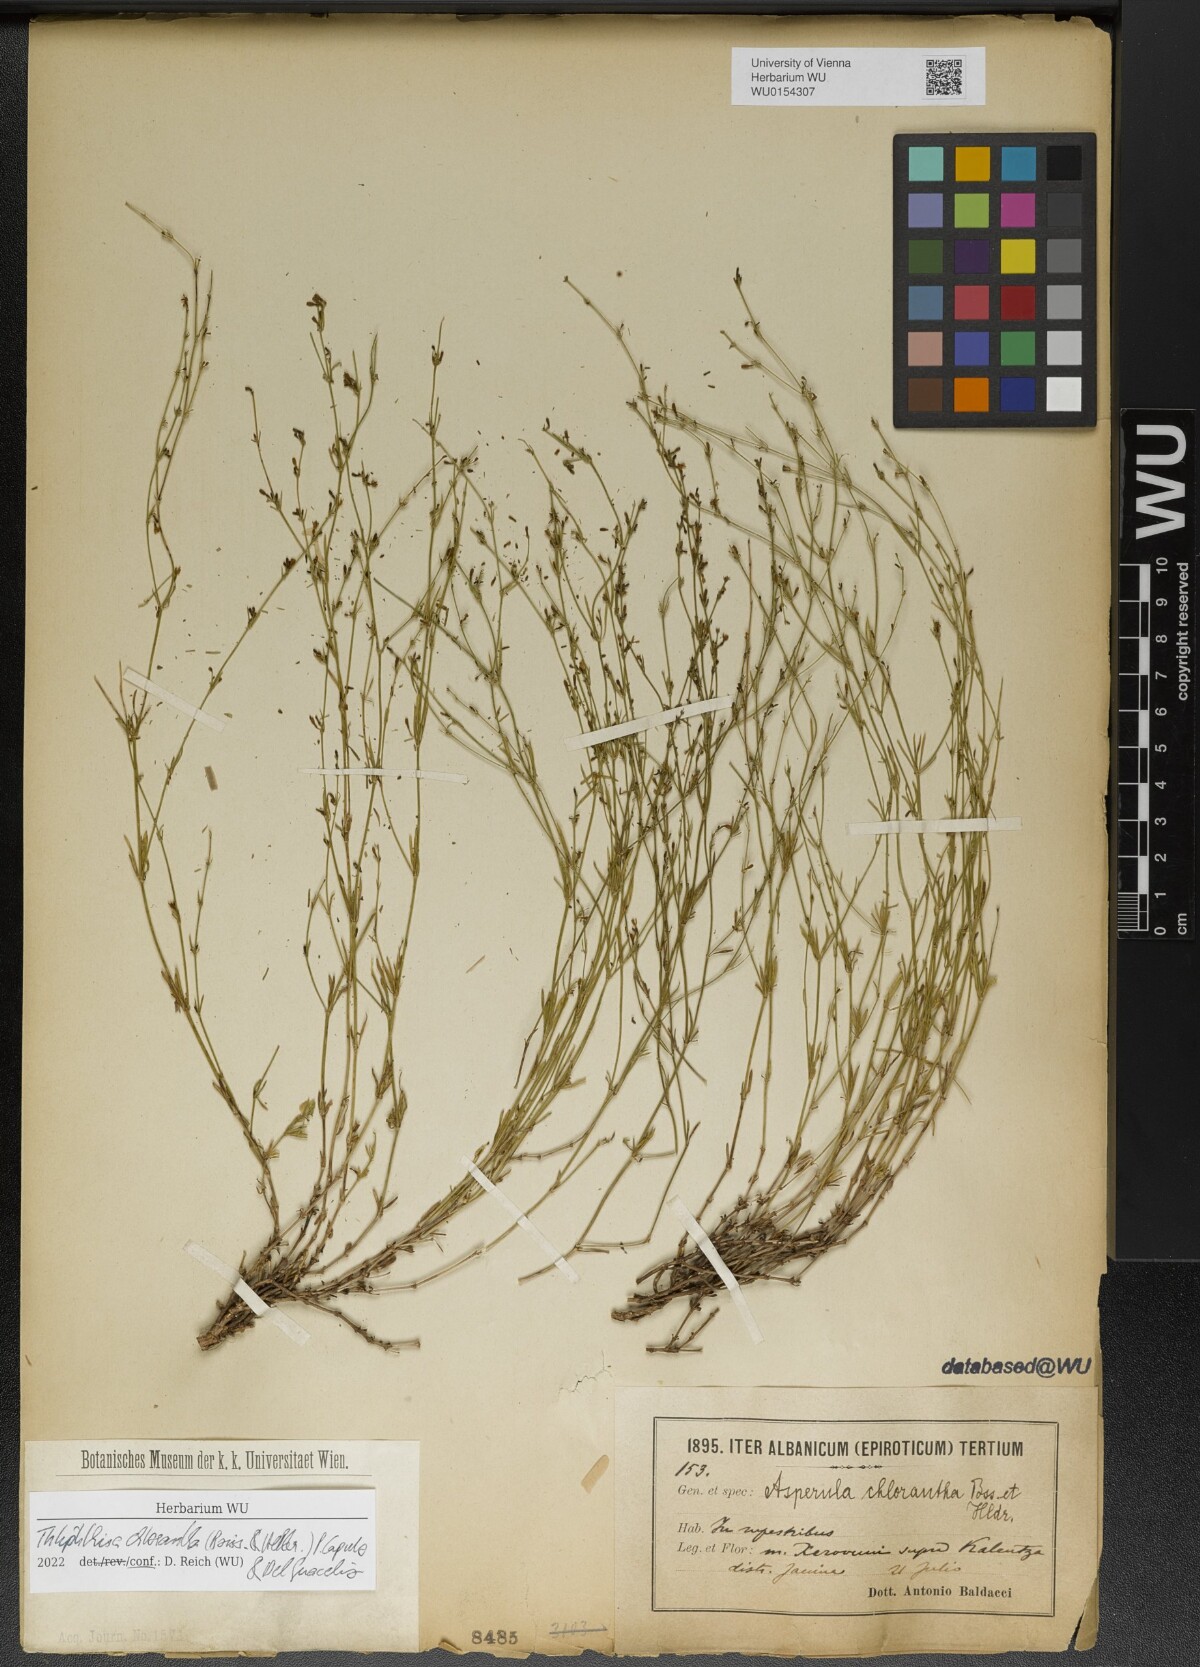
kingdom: Plantae
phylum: Tracheophyta
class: Magnoliopsida
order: Gentianales
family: Rubiaceae
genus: Thliphthisa
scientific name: Thliphthisa chlorantha
